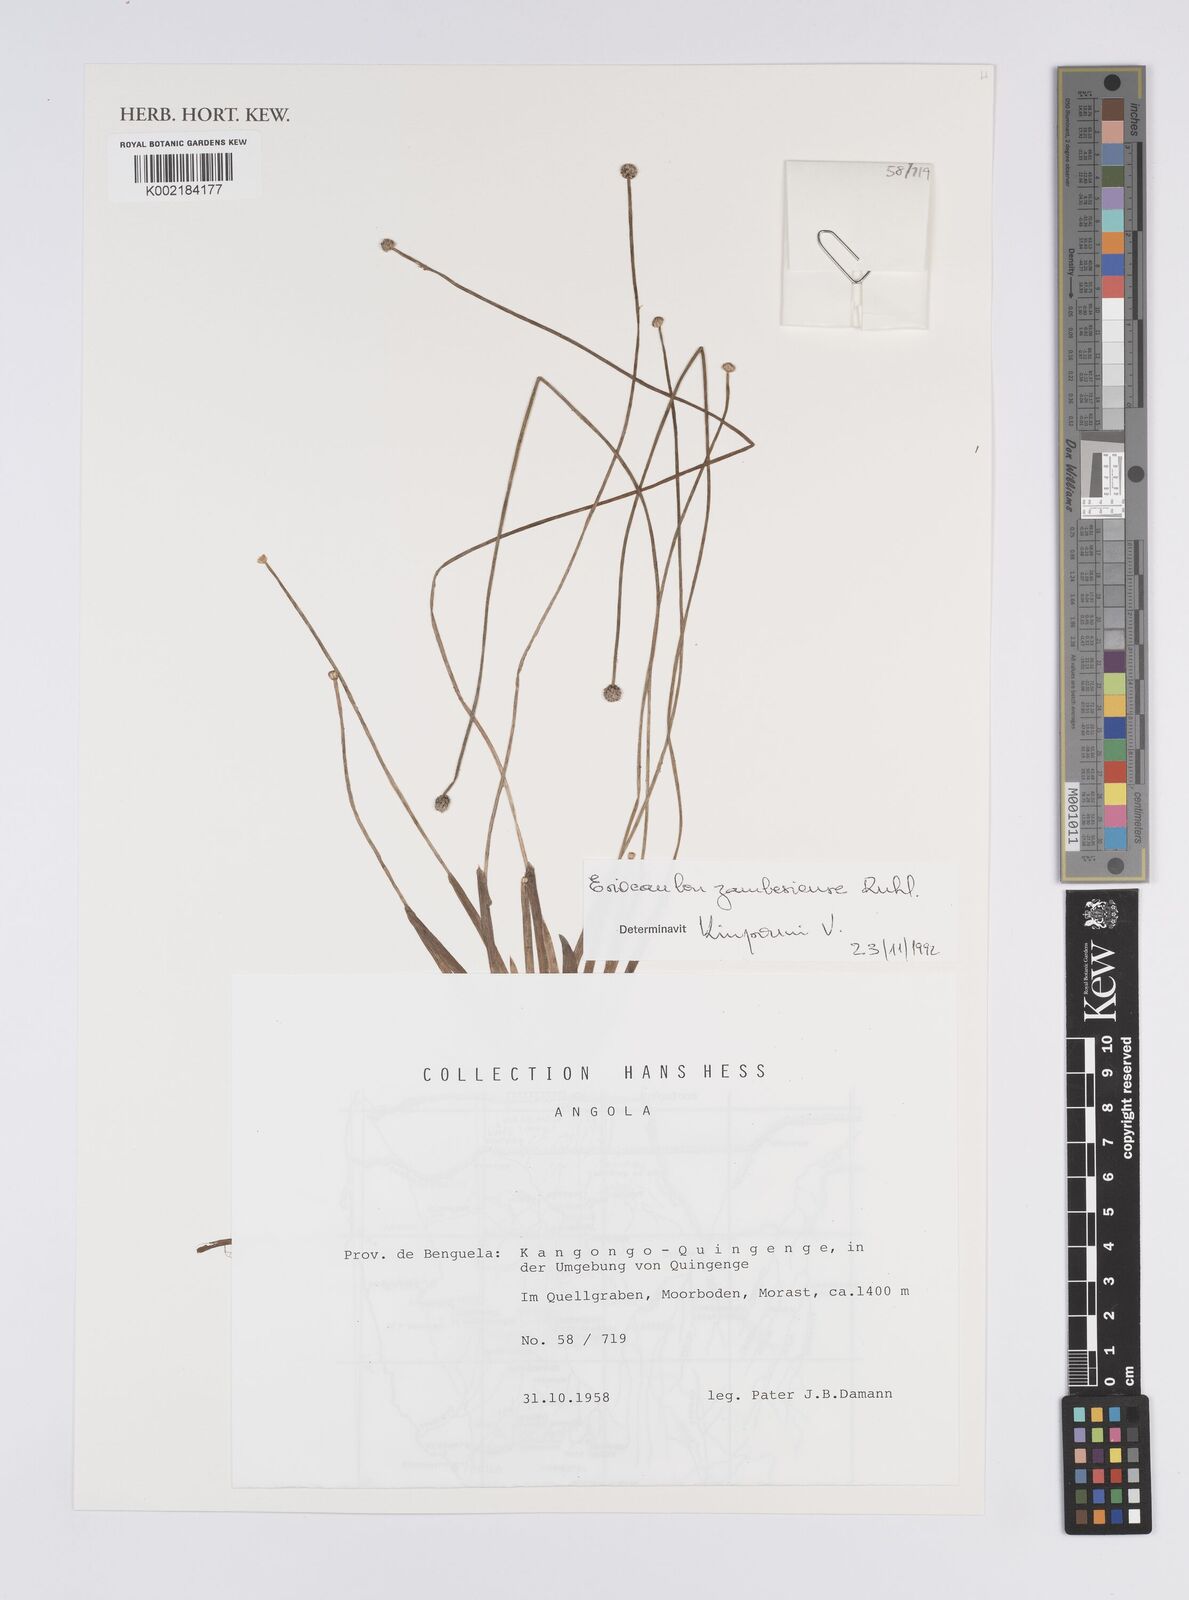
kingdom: Plantae
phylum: Tracheophyta
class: Liliopsida
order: Poales
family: Eriocaulaceae
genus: Eriocaulon
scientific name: Eriocaulon zambesiense
